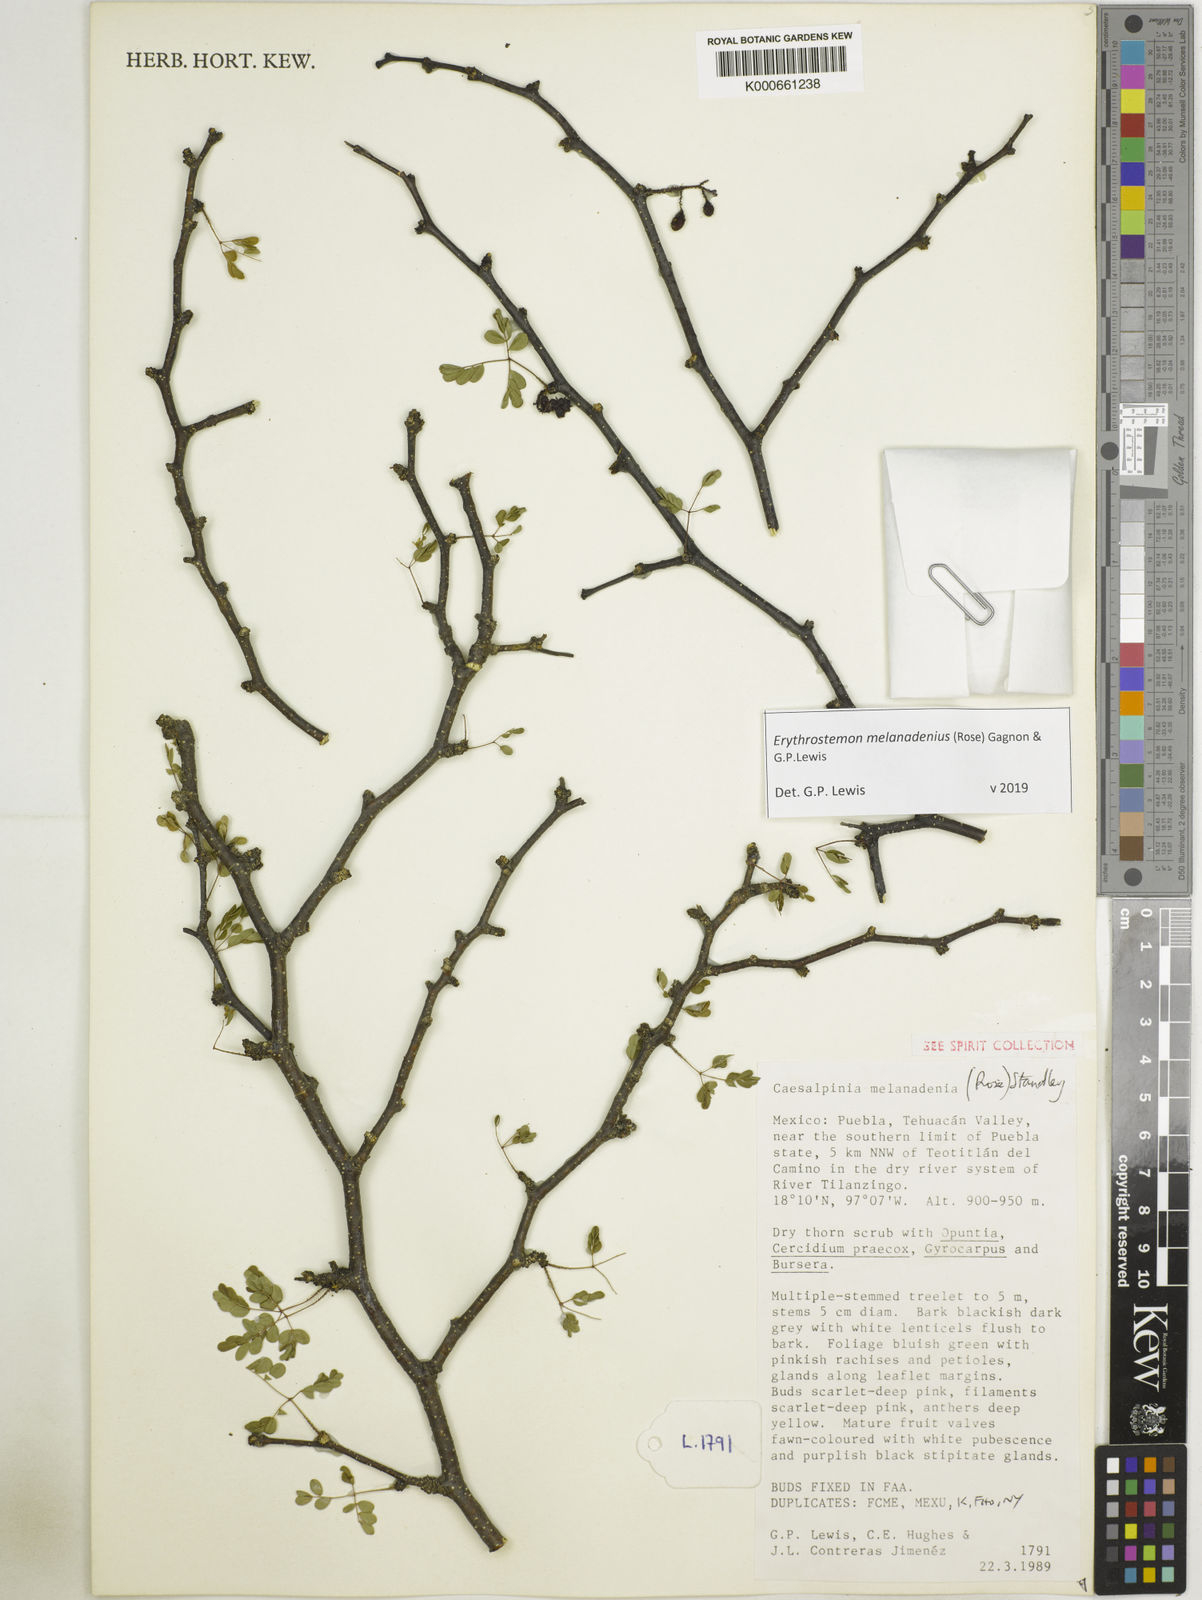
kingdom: Plantae
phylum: Tracheophyta
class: Magnoliopsida
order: Fabales
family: Fabaceae
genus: Erythrostemon
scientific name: Erythrostemon melanadenius
